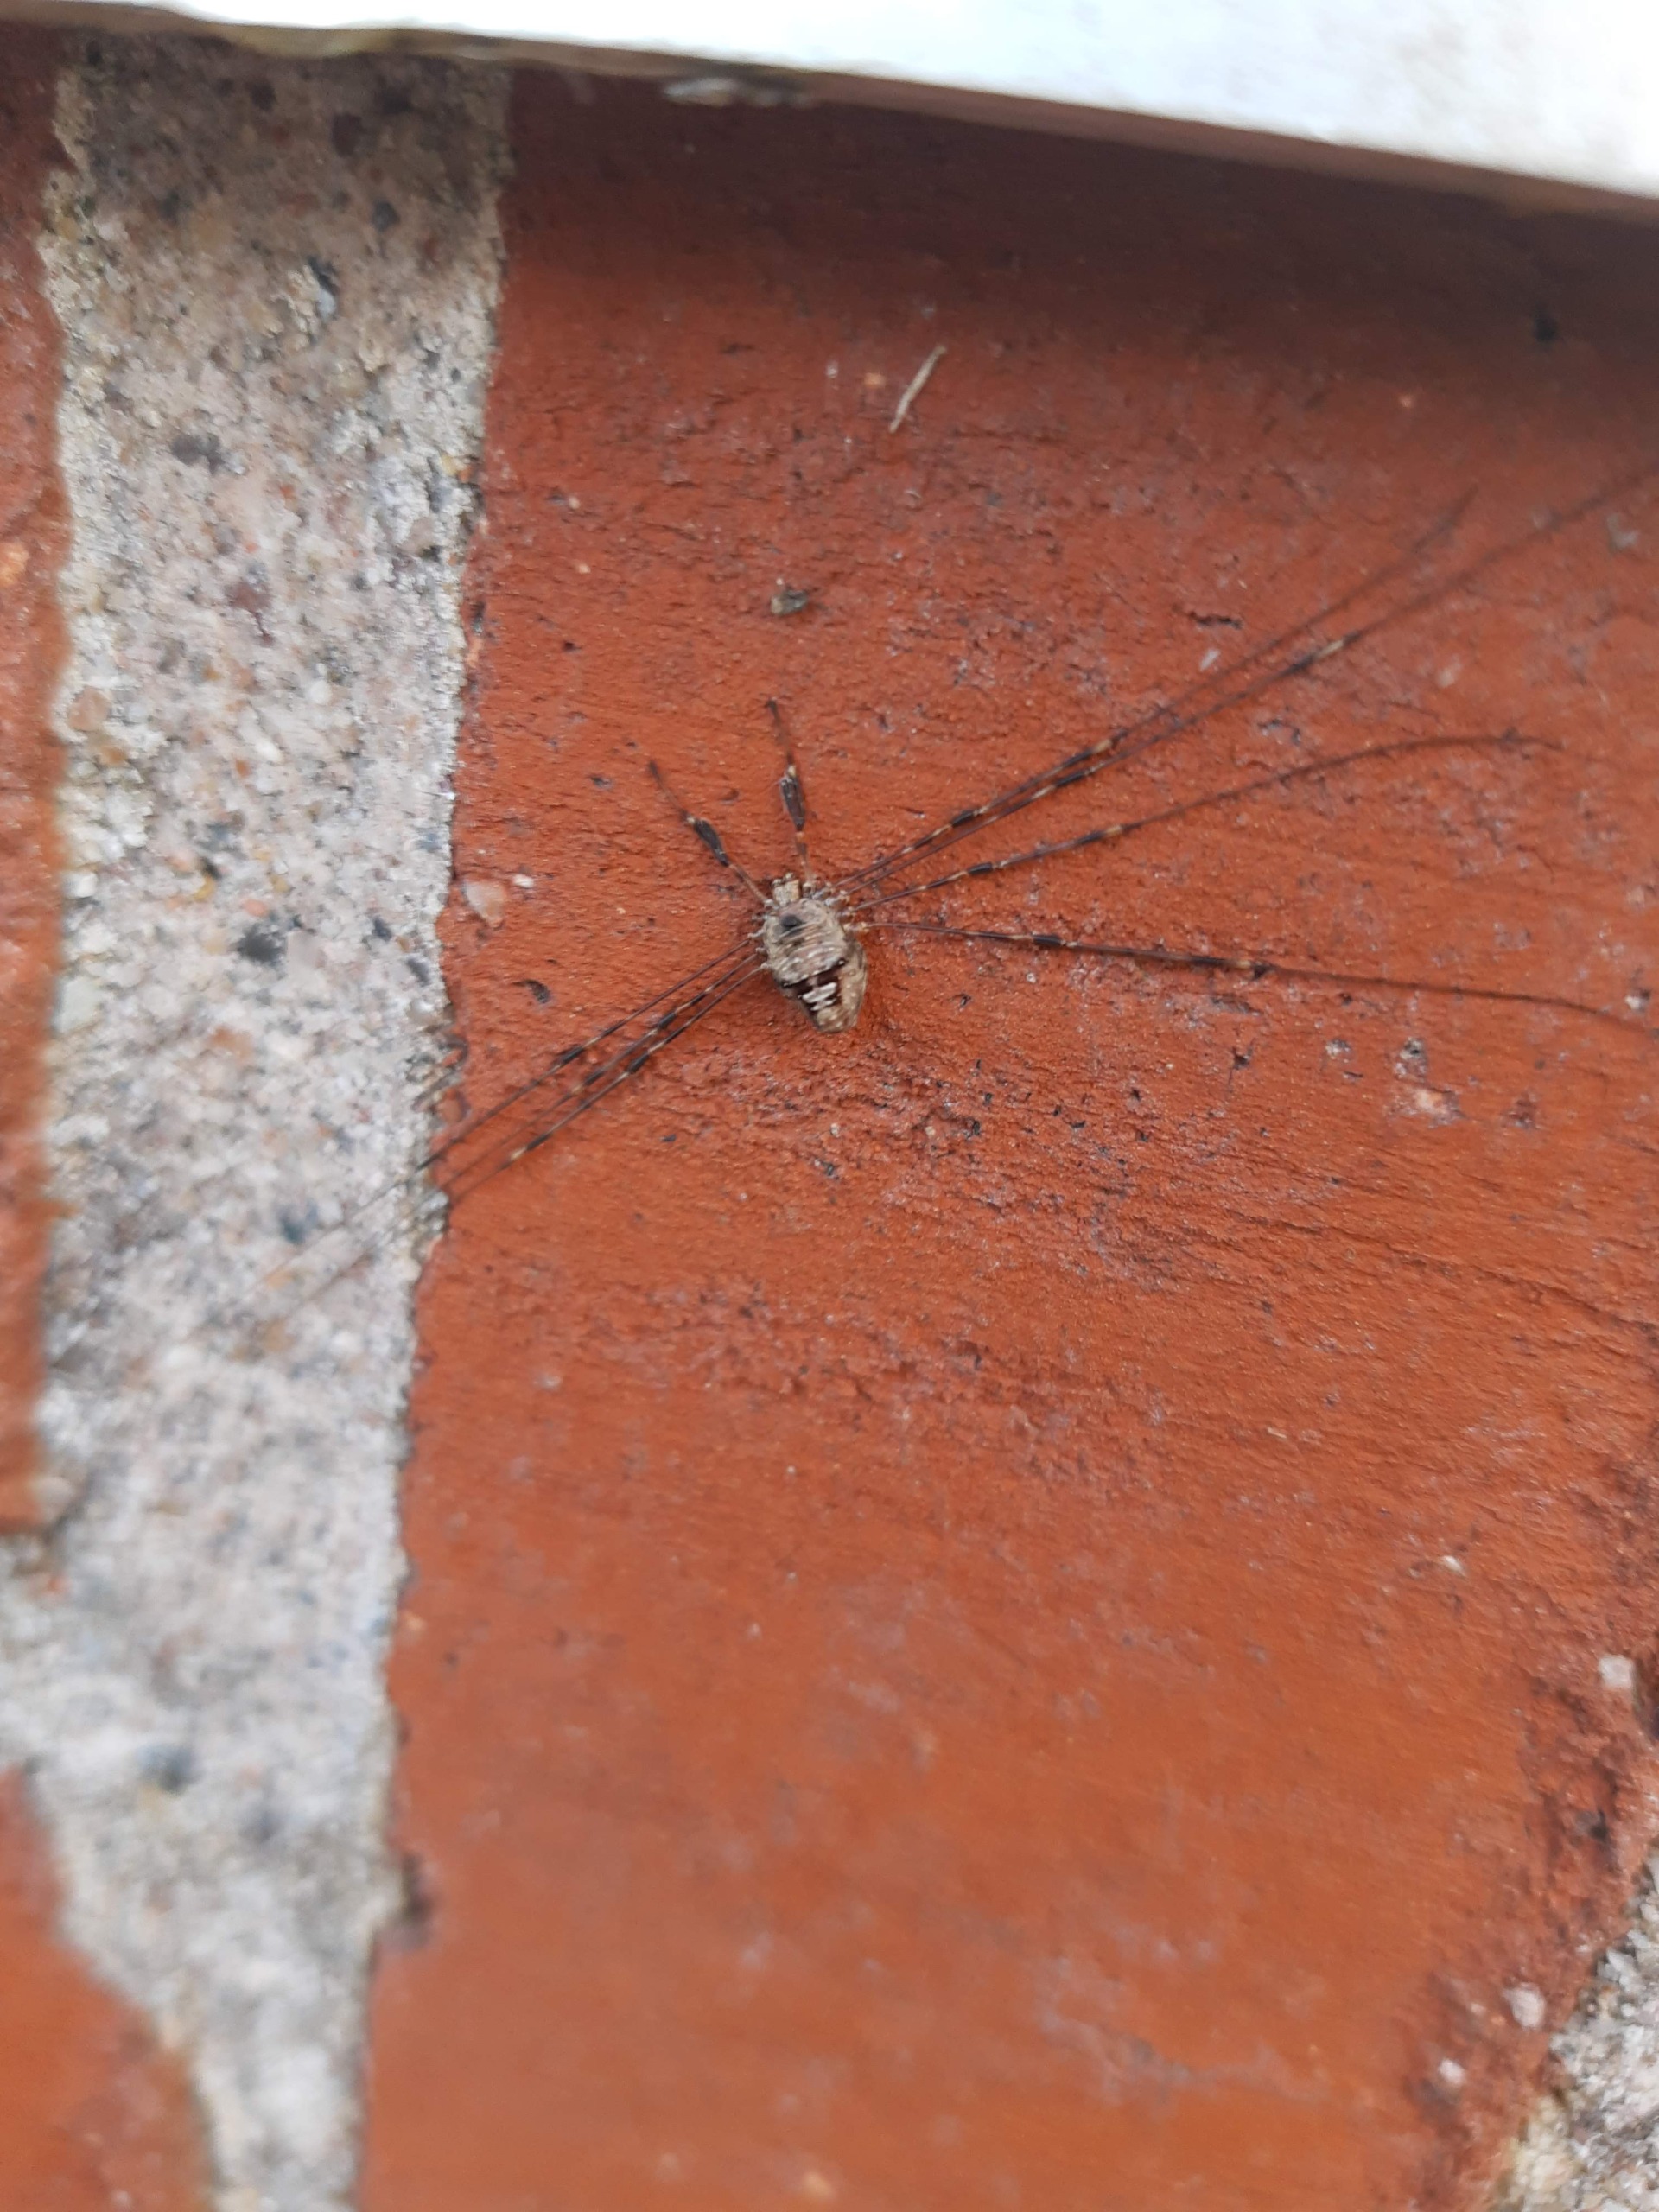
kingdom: Animalia
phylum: Arthropoda
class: Arachnida
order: Opiliones
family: Phalangiidae
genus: Dicranopalpus
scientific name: Dicranopalpus ramosus
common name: Gaffelmejer
